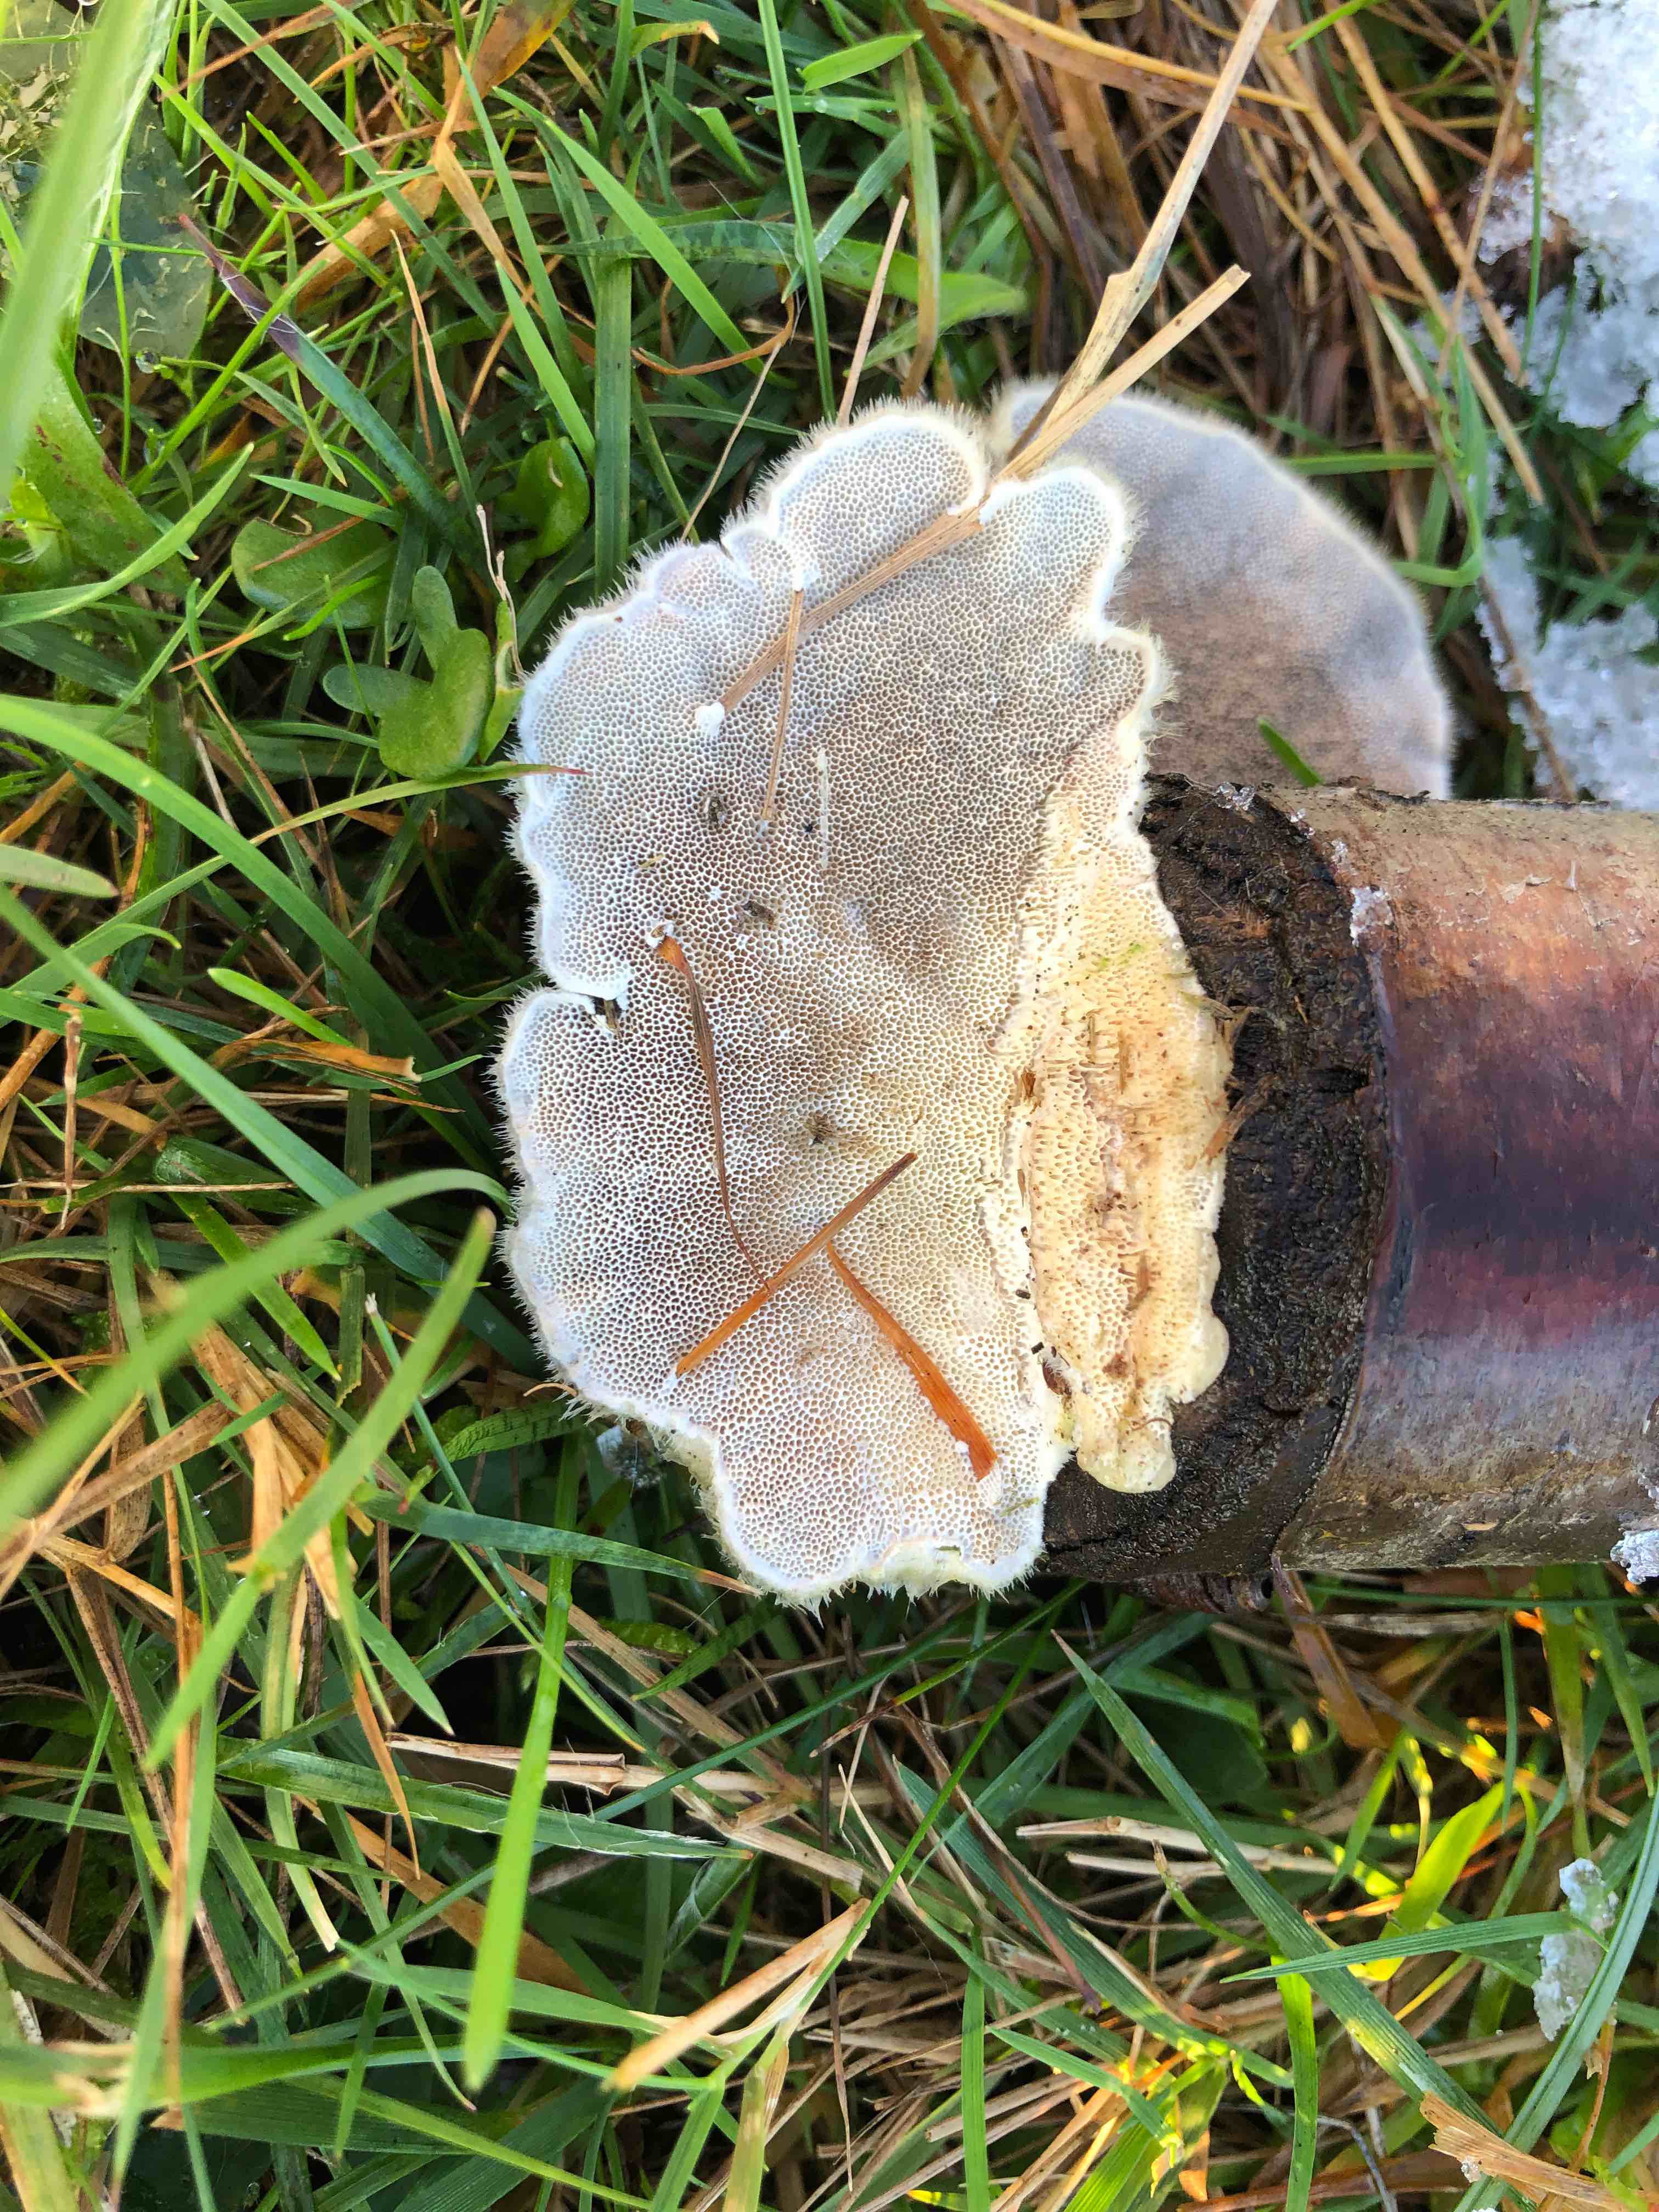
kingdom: Fungi
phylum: Basidiomycota
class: Agaricomycetes
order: Polyporales
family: Polyporaceae
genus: Trametes
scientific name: Trametes hirsuta
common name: håret læderporesvamp
